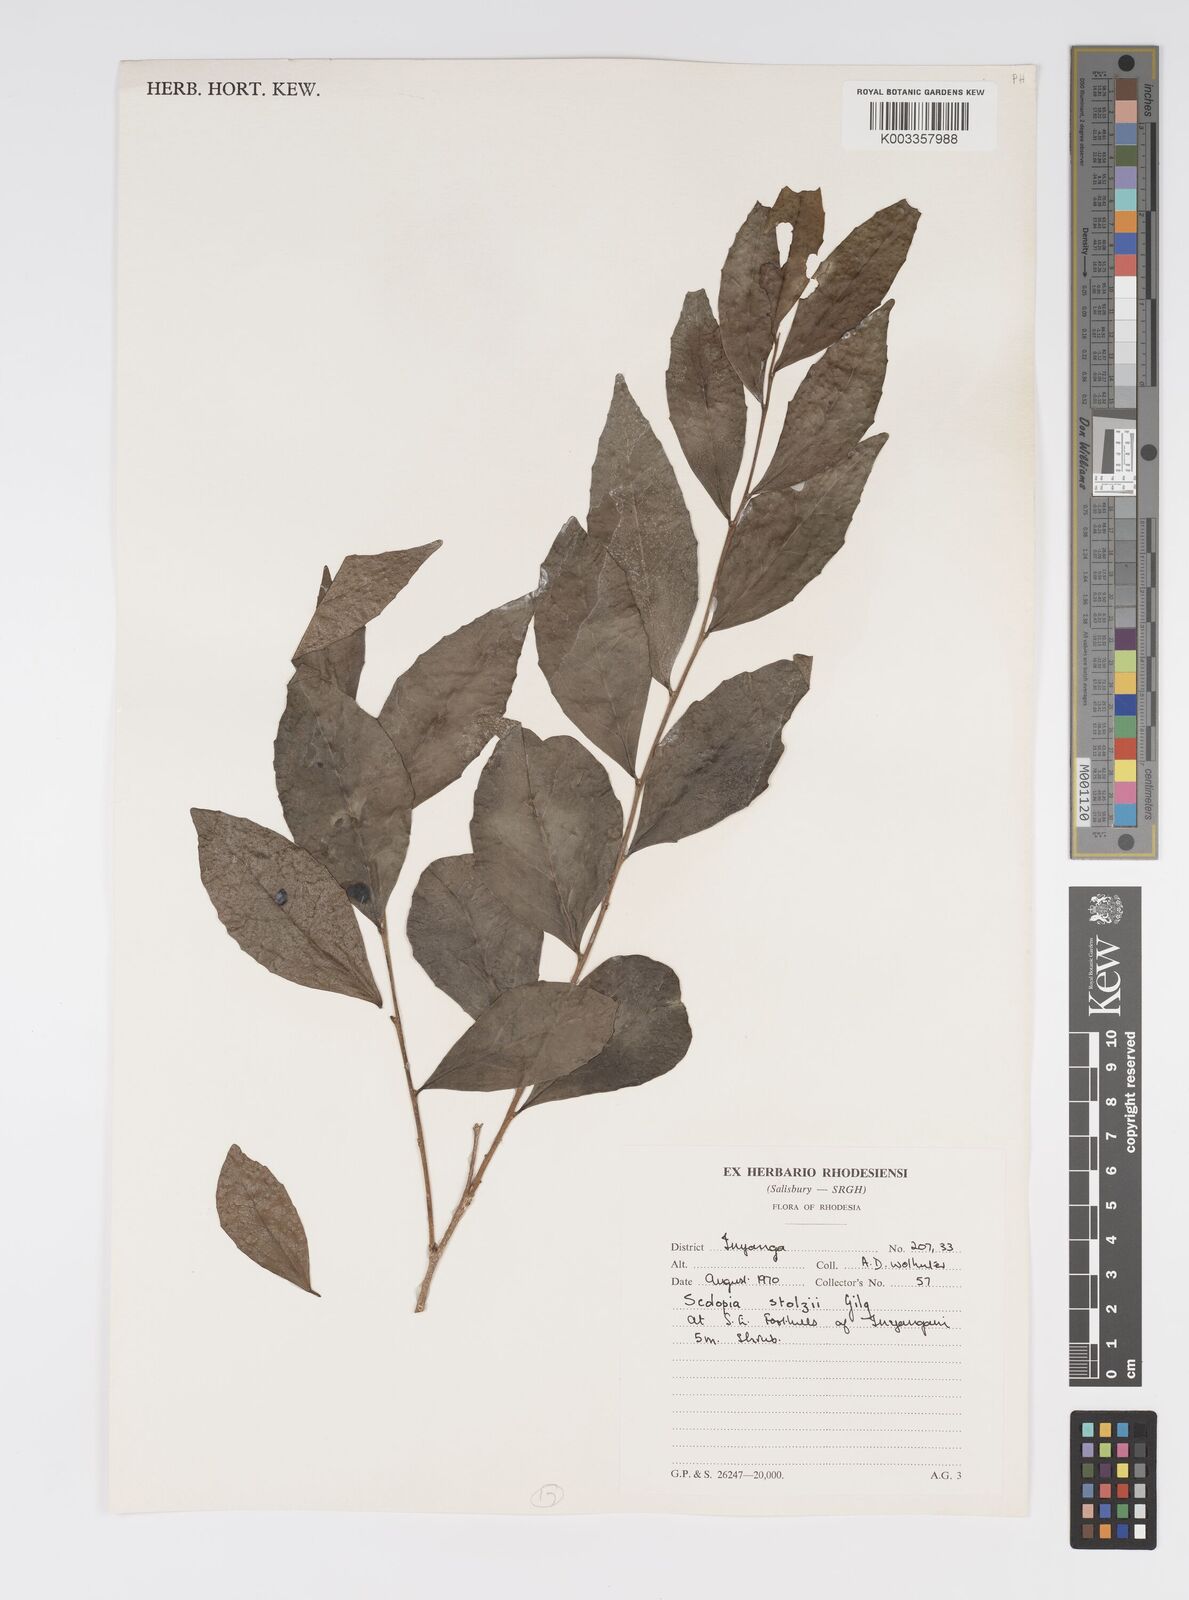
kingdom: Plantae
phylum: Tracheophyta
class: Magnoliopsida
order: Malpighiales
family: Salicaceae
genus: Scolopia
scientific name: Scolopia stolzii
